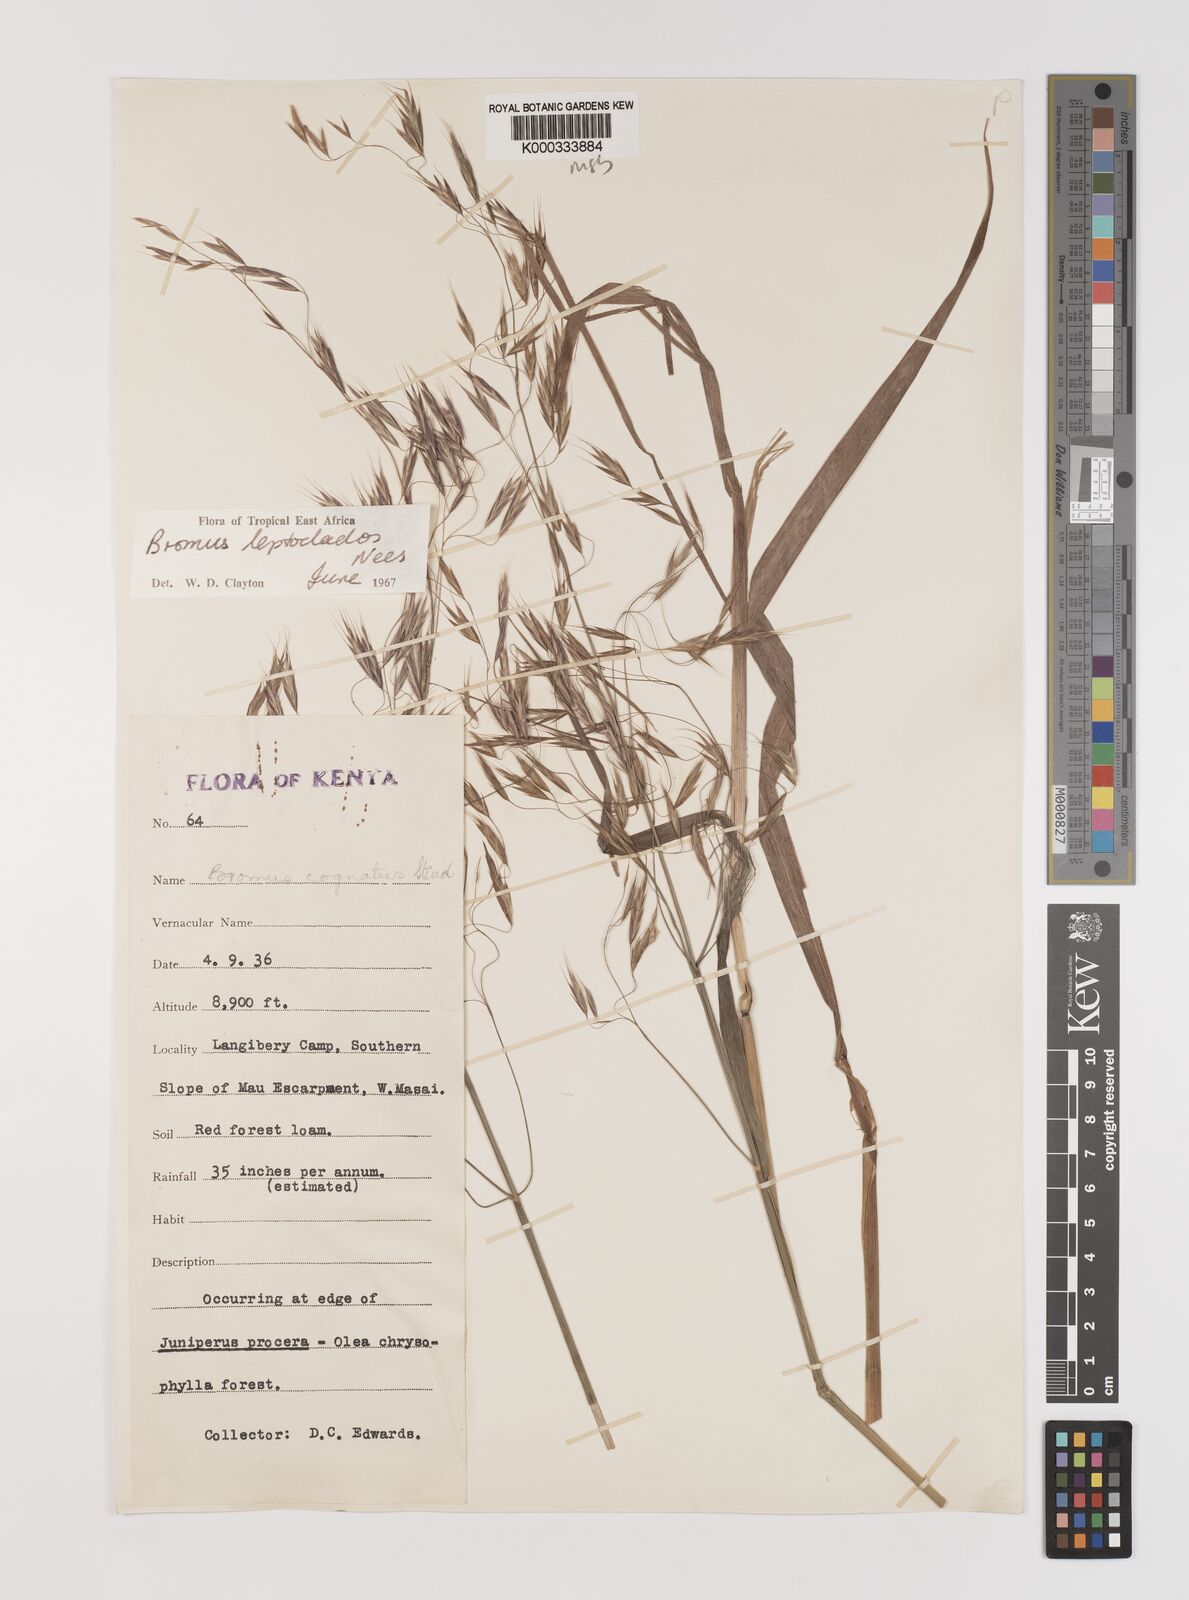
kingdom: Plantae
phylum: Tracheophyta
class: Liliopsida
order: Poales
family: Poaceae
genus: Bromus
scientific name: Bromus leptoclados
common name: Mountain bromegrass
